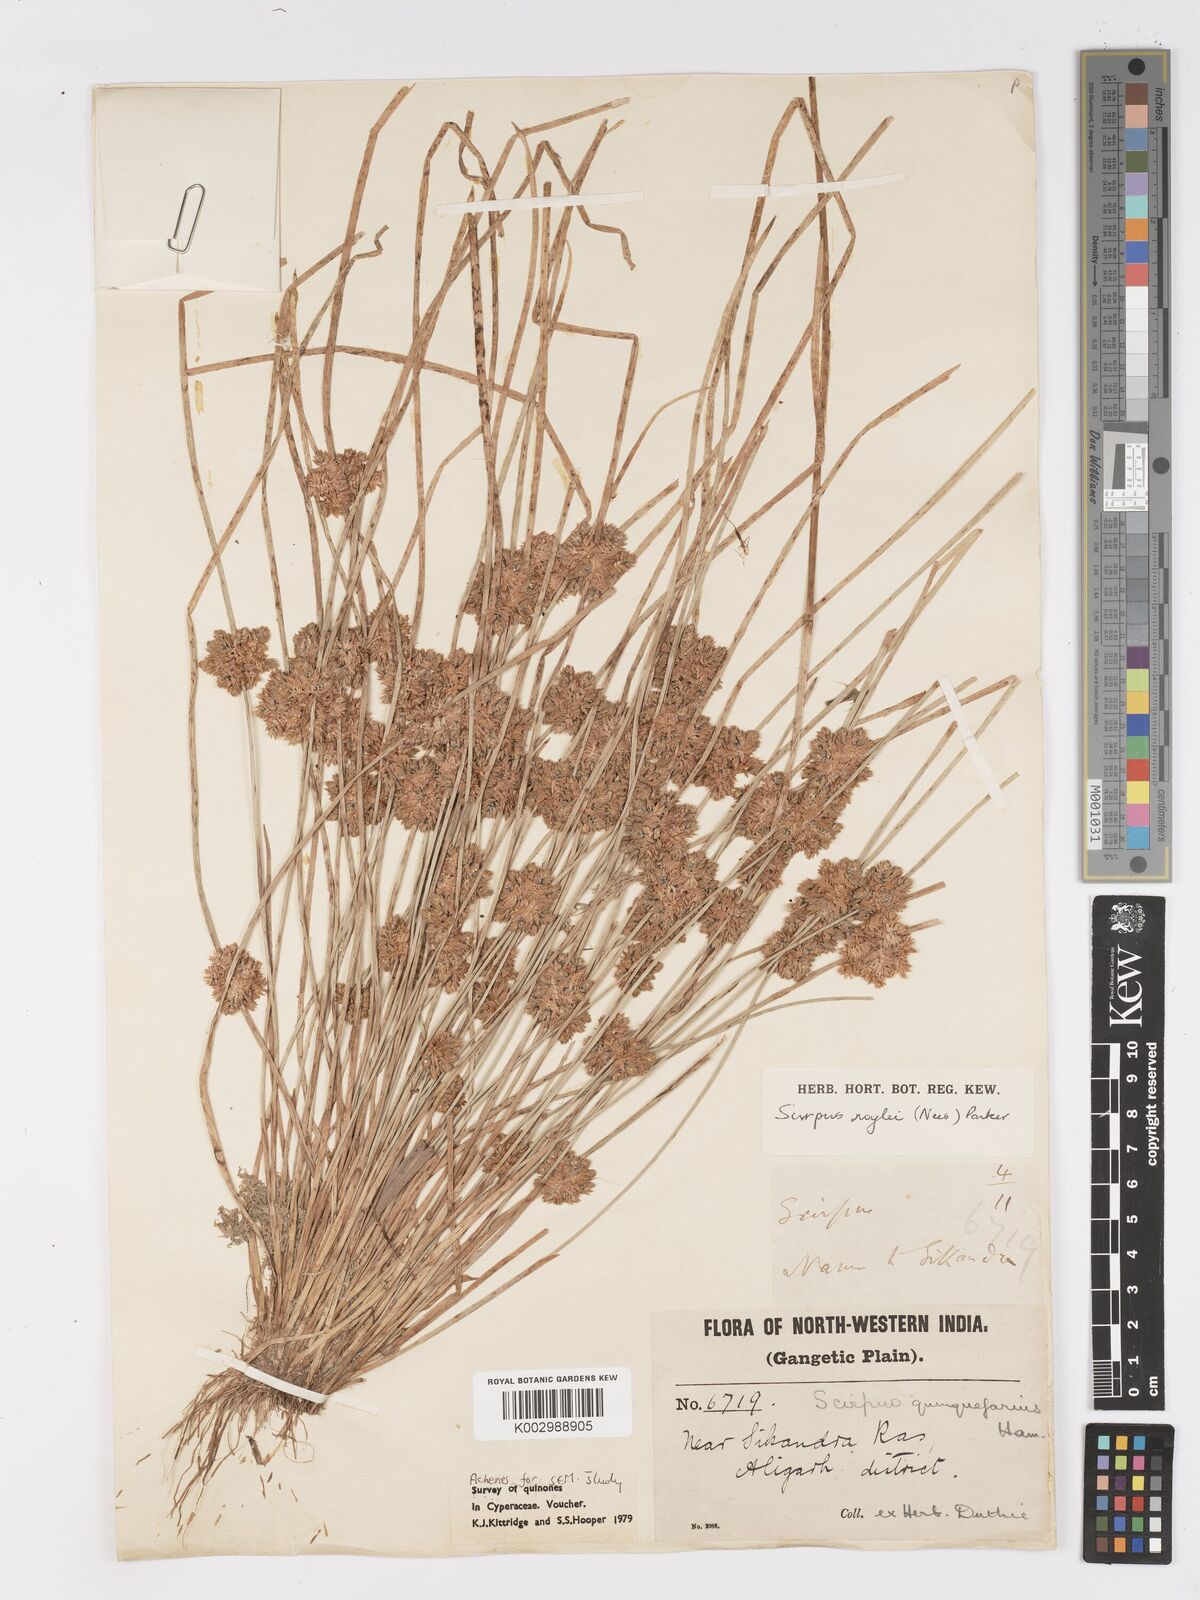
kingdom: Plantae
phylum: Tracheophyta
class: Liliopsida
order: Poales
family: Cyperaceae
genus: Schoenoplectiella
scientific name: Schoenoplectiella roylei
